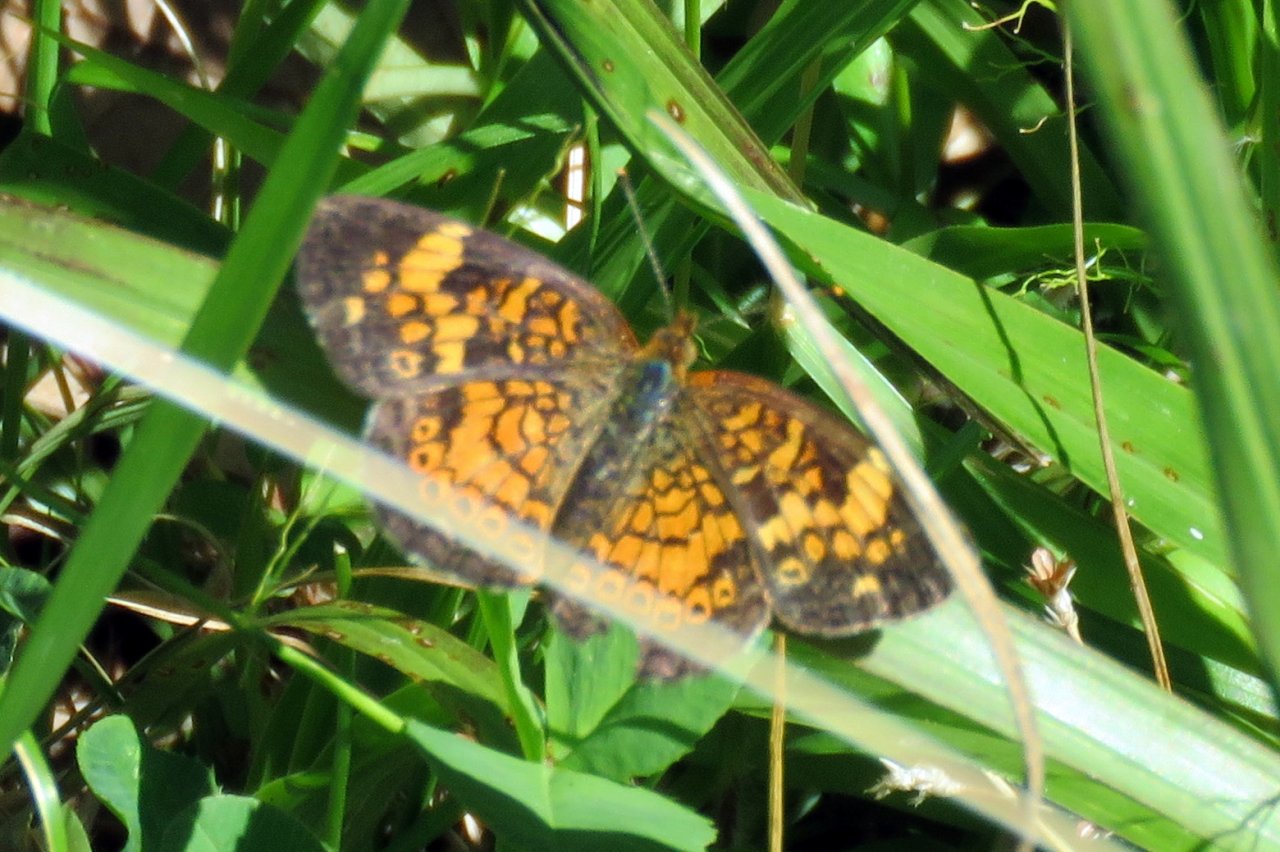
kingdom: Animalia
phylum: Arthropoda
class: Insecta
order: Lepidoptera
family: Nymphalidae
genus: Phyciodes
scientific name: Phyciodes tharos
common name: Pearl Crescent
